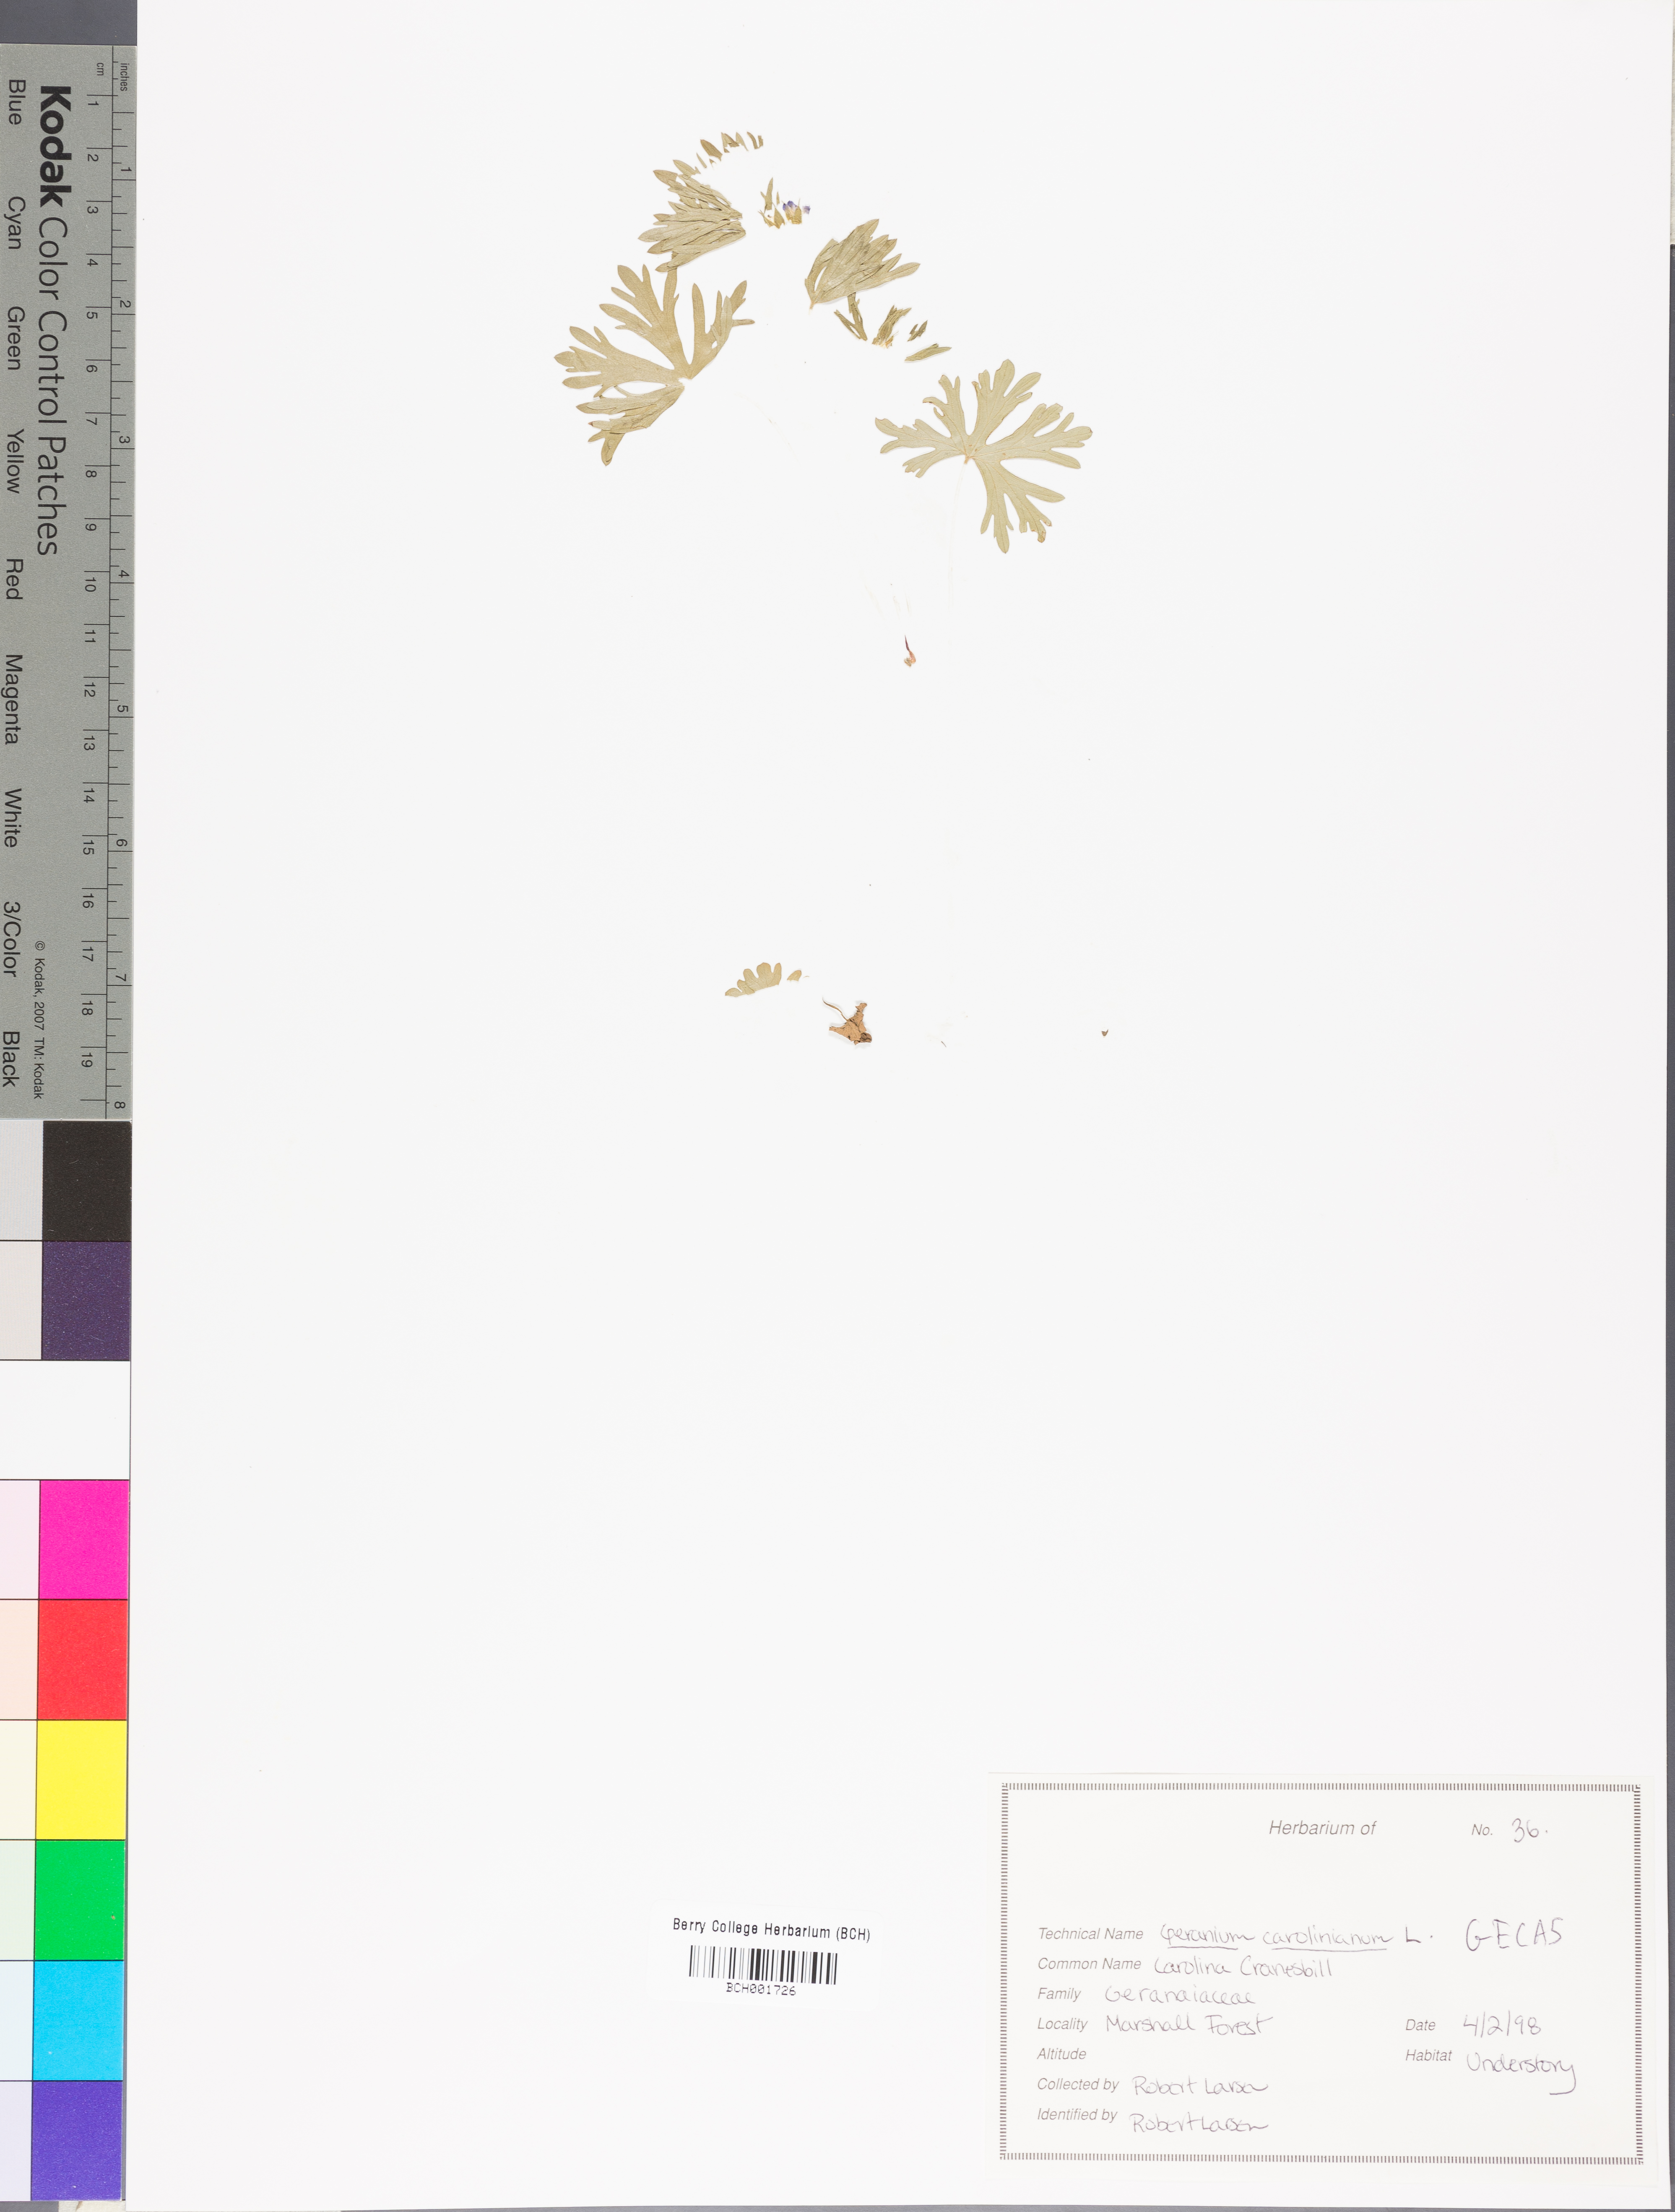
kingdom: Plantae
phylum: Tracheophyta
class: Magnoliopsida
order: Geraniales
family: Geraniaceae
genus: Geranium
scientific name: Geranium carolinianum
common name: Carolina crane's-bill
